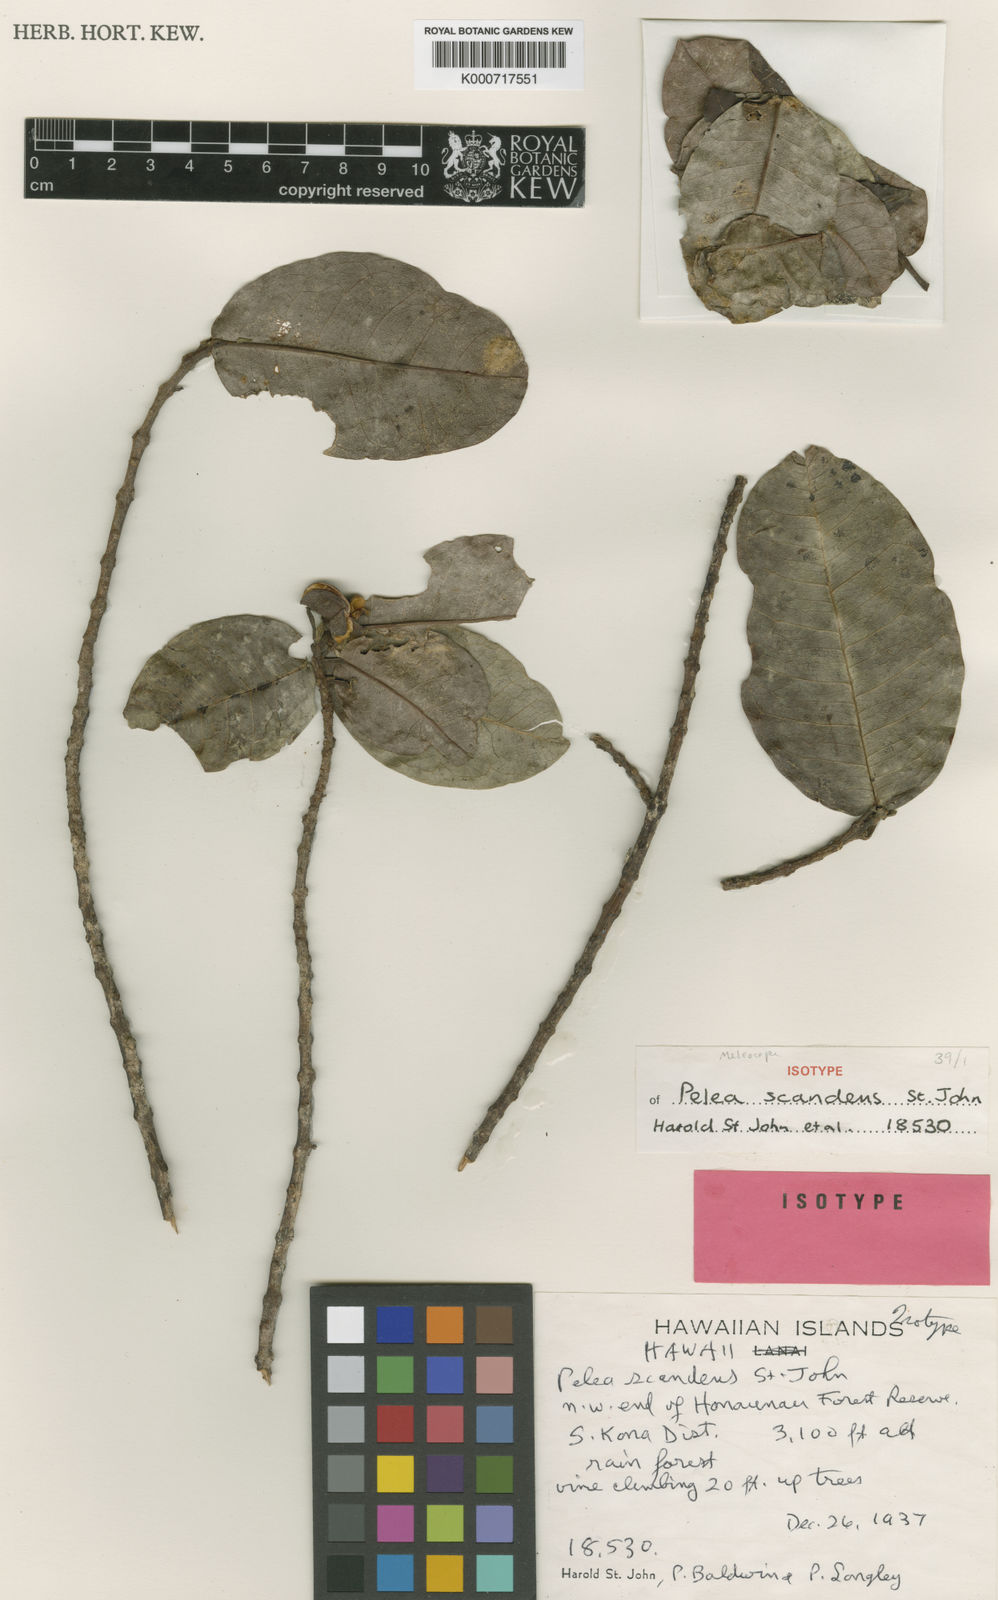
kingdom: Plantae
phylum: Tracheophyta
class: Magnoliopsida
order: Sapindales
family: Rutaceae
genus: Melicope
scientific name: Melicope radiata
